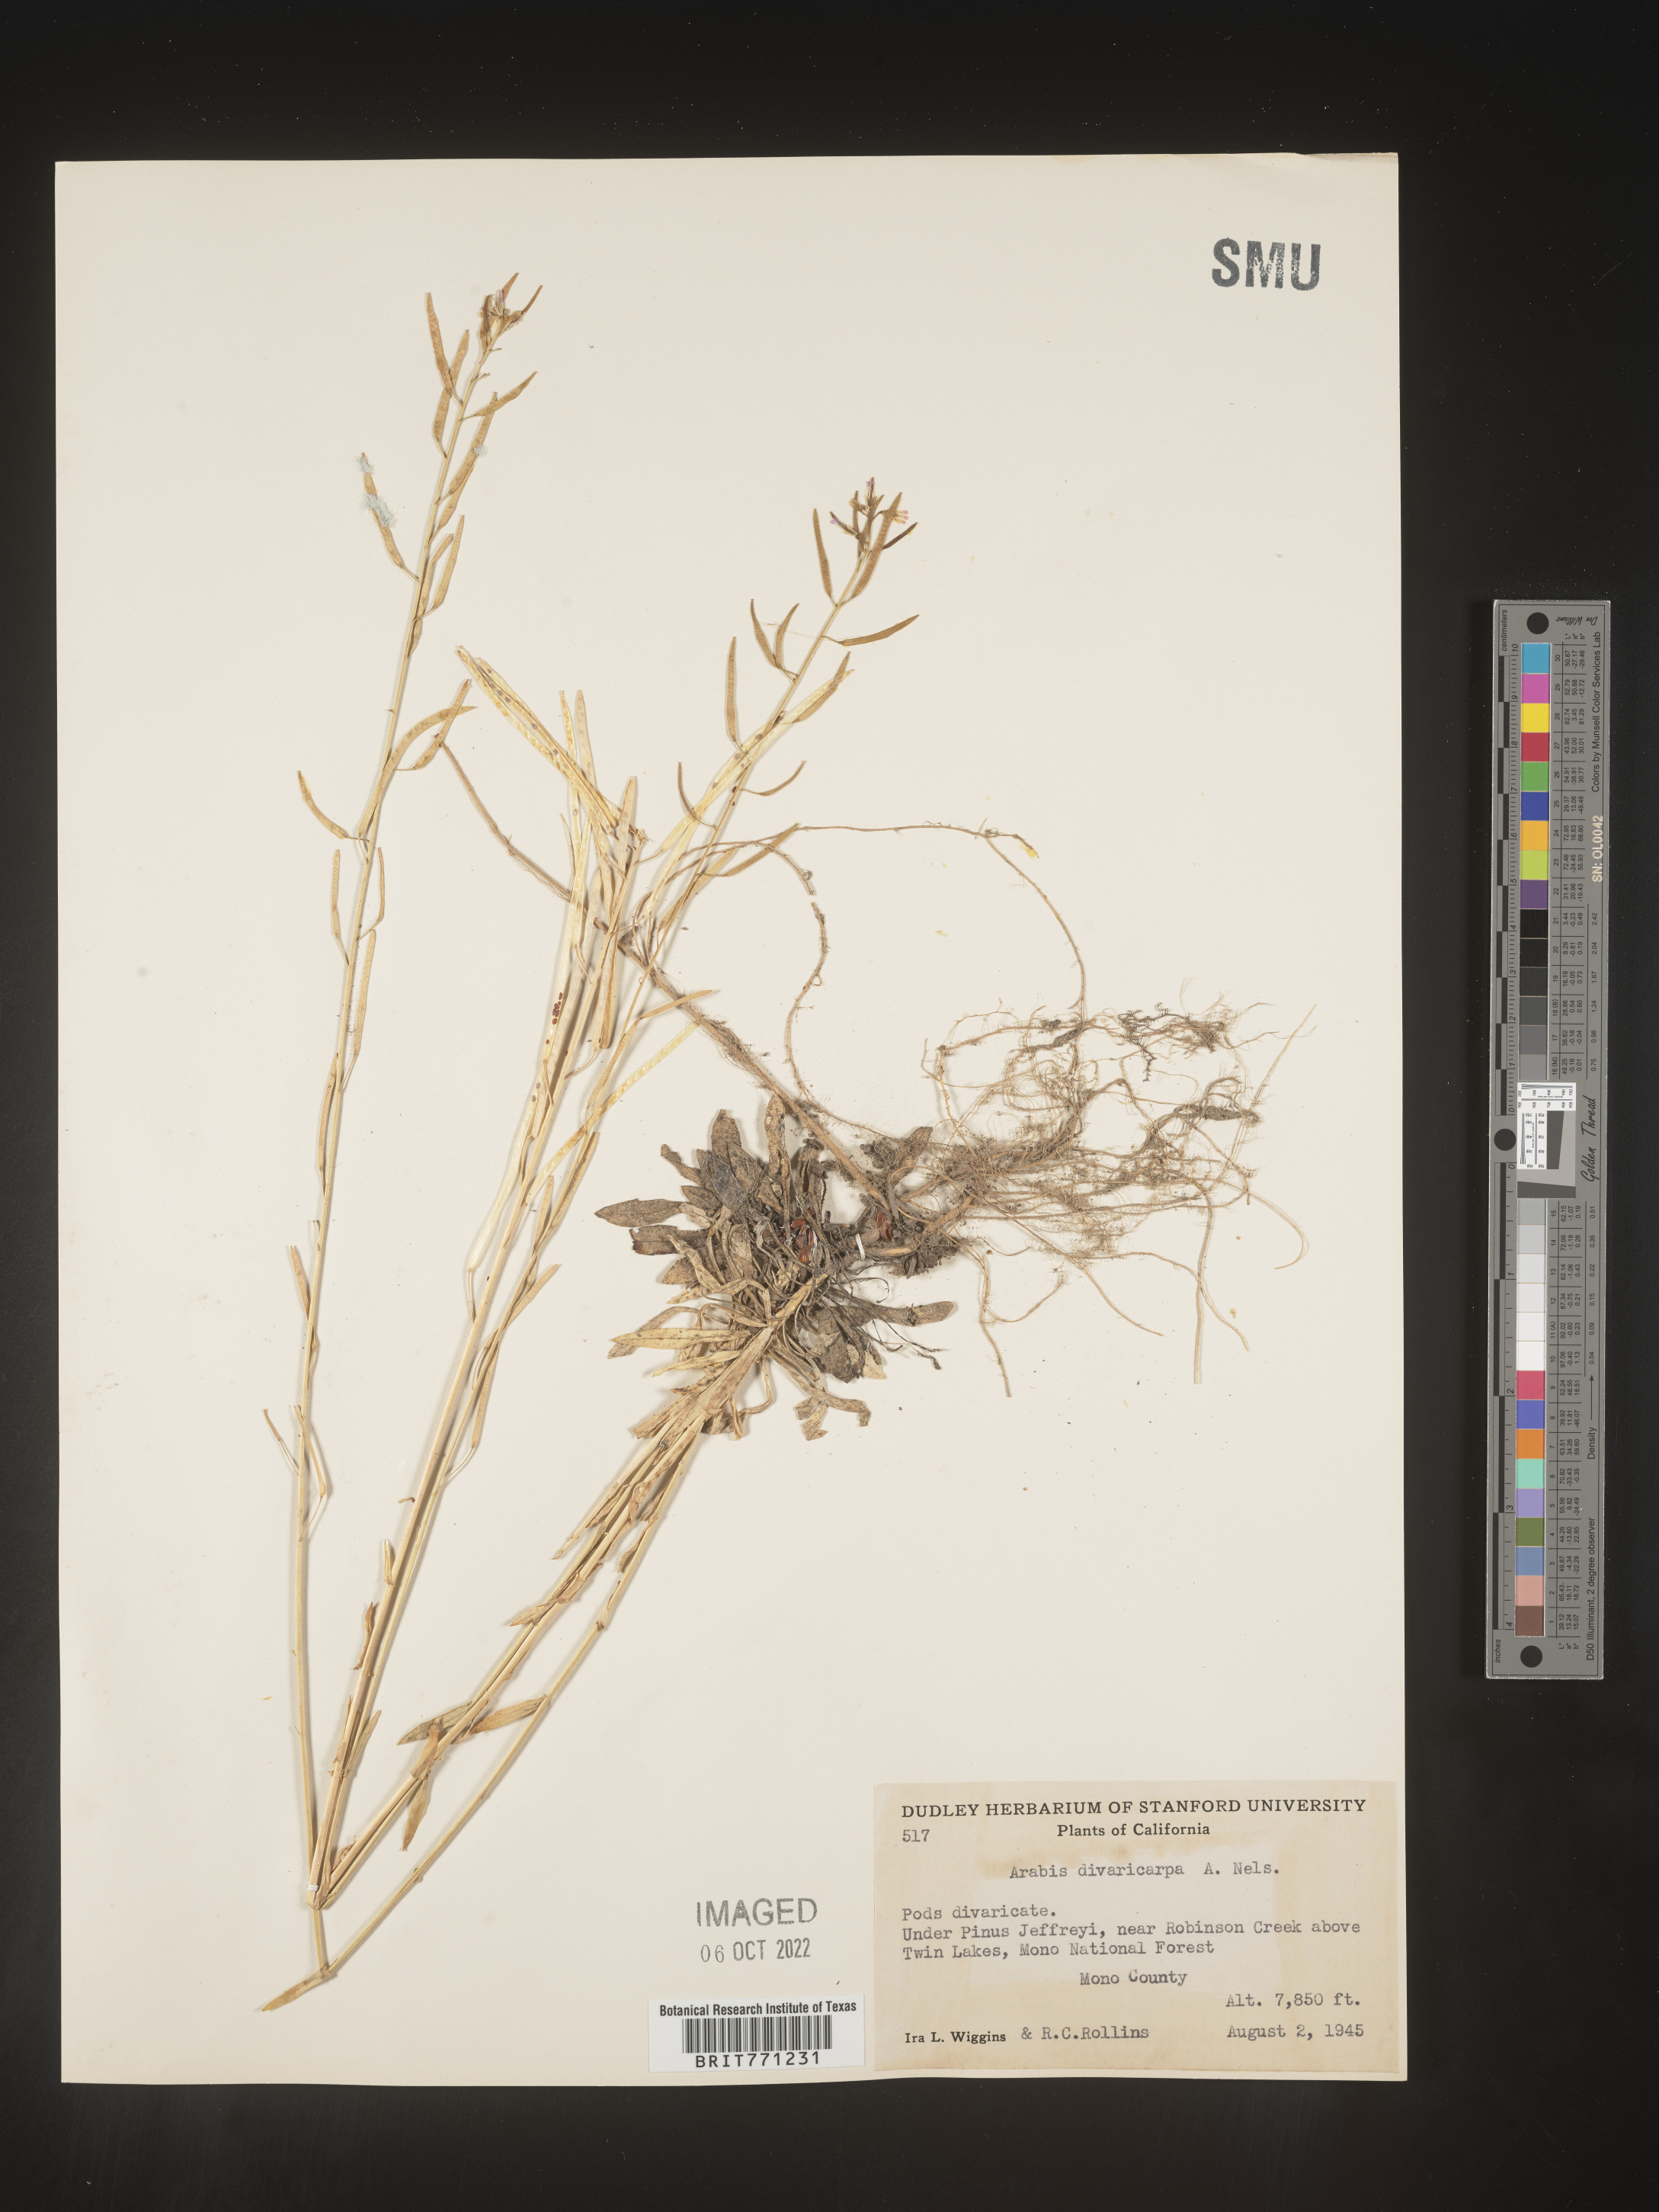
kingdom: Plantae
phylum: Tracheophyta
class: Magnoliopsida
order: Brassicales
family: Brassicaceae
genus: Boechera
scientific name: Boechera divaricarpa
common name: Divaricate rockcress
